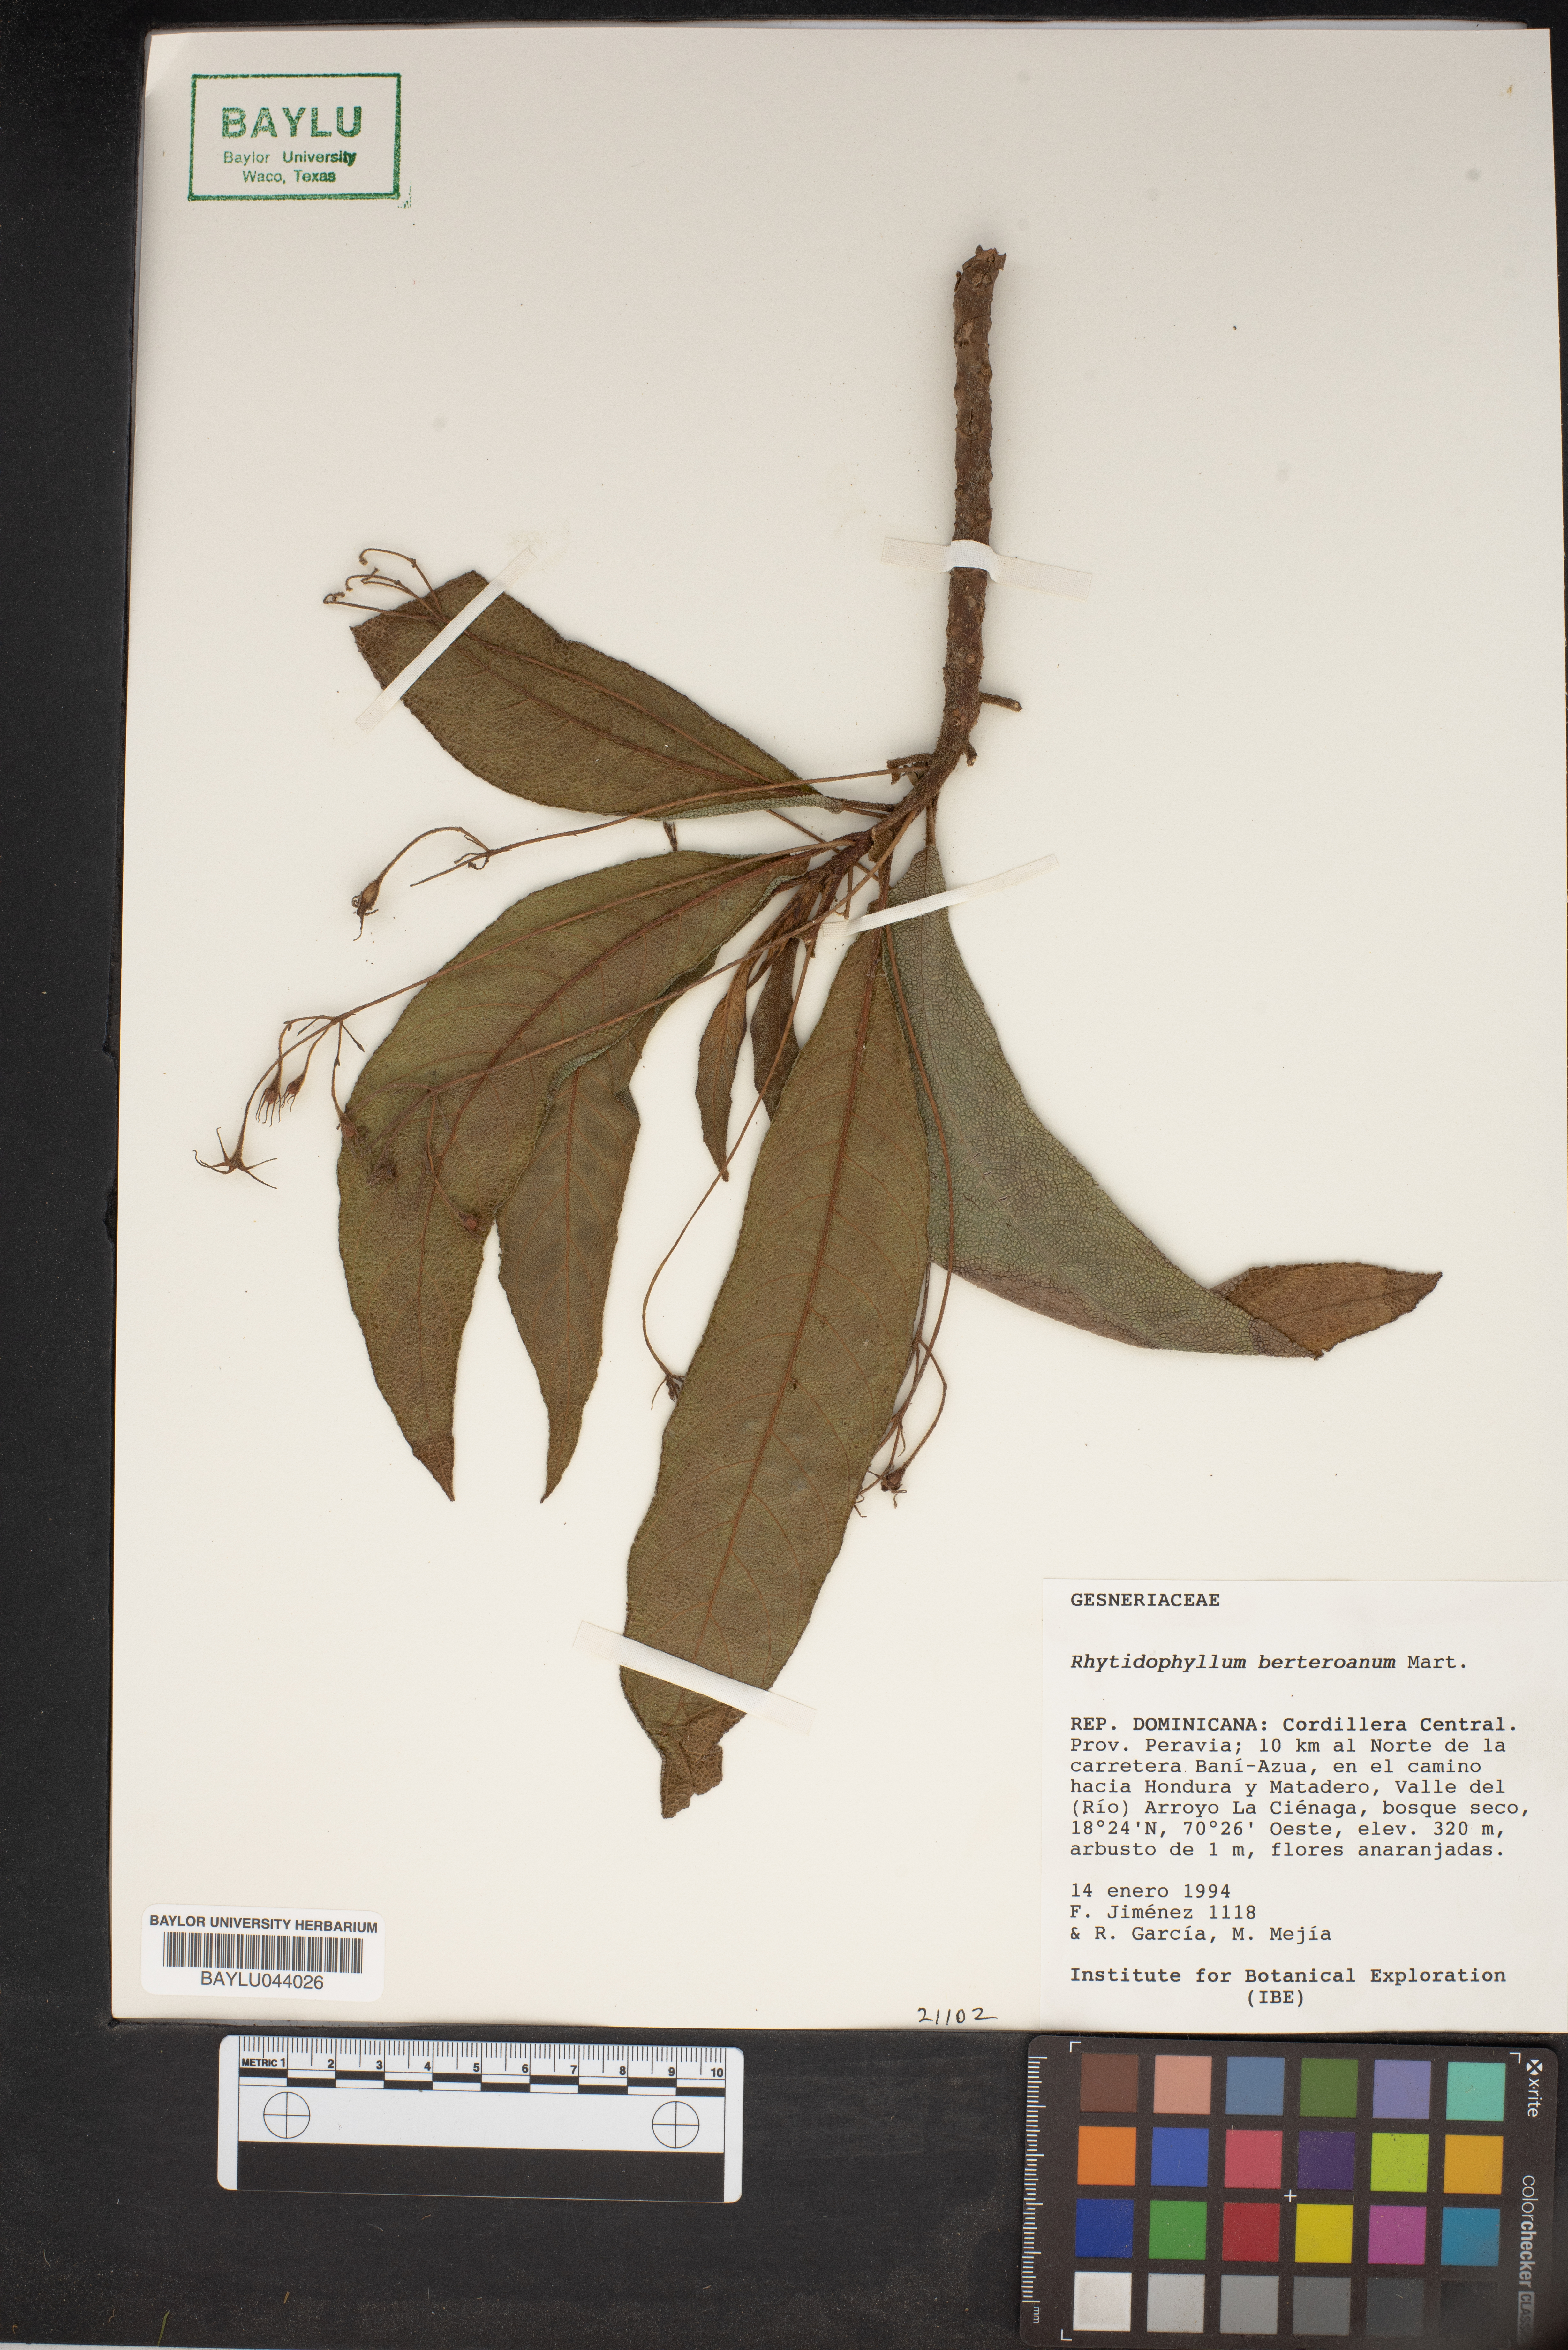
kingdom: Plantae
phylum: Tracheophyta
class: Magnoliopsida
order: Lamiales
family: Gesneriaceae
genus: Rhytidophyllum
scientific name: Rhytidophyllum berteroanum
